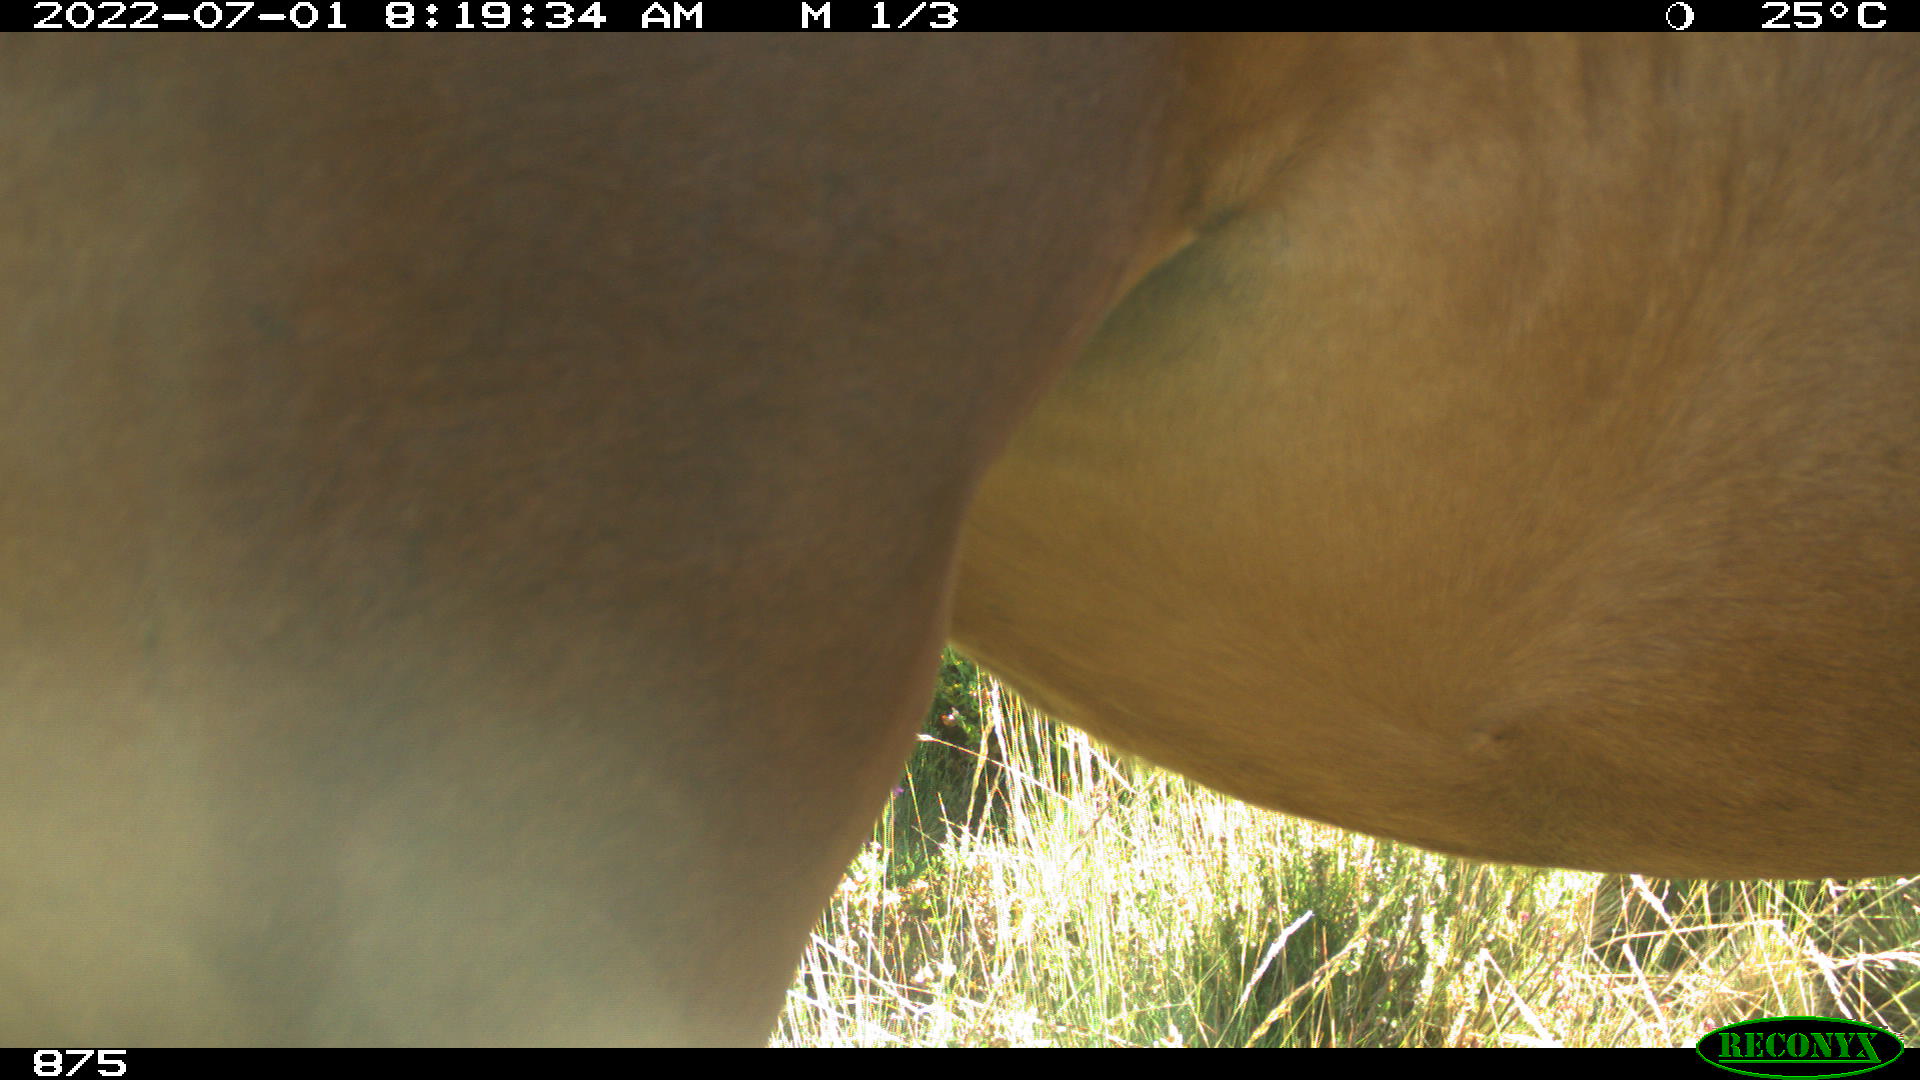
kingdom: Animalia
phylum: Chordata
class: Mammalia
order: Perissodactyla
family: Equidae
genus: Equus
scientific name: Equus caballus
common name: Horse
